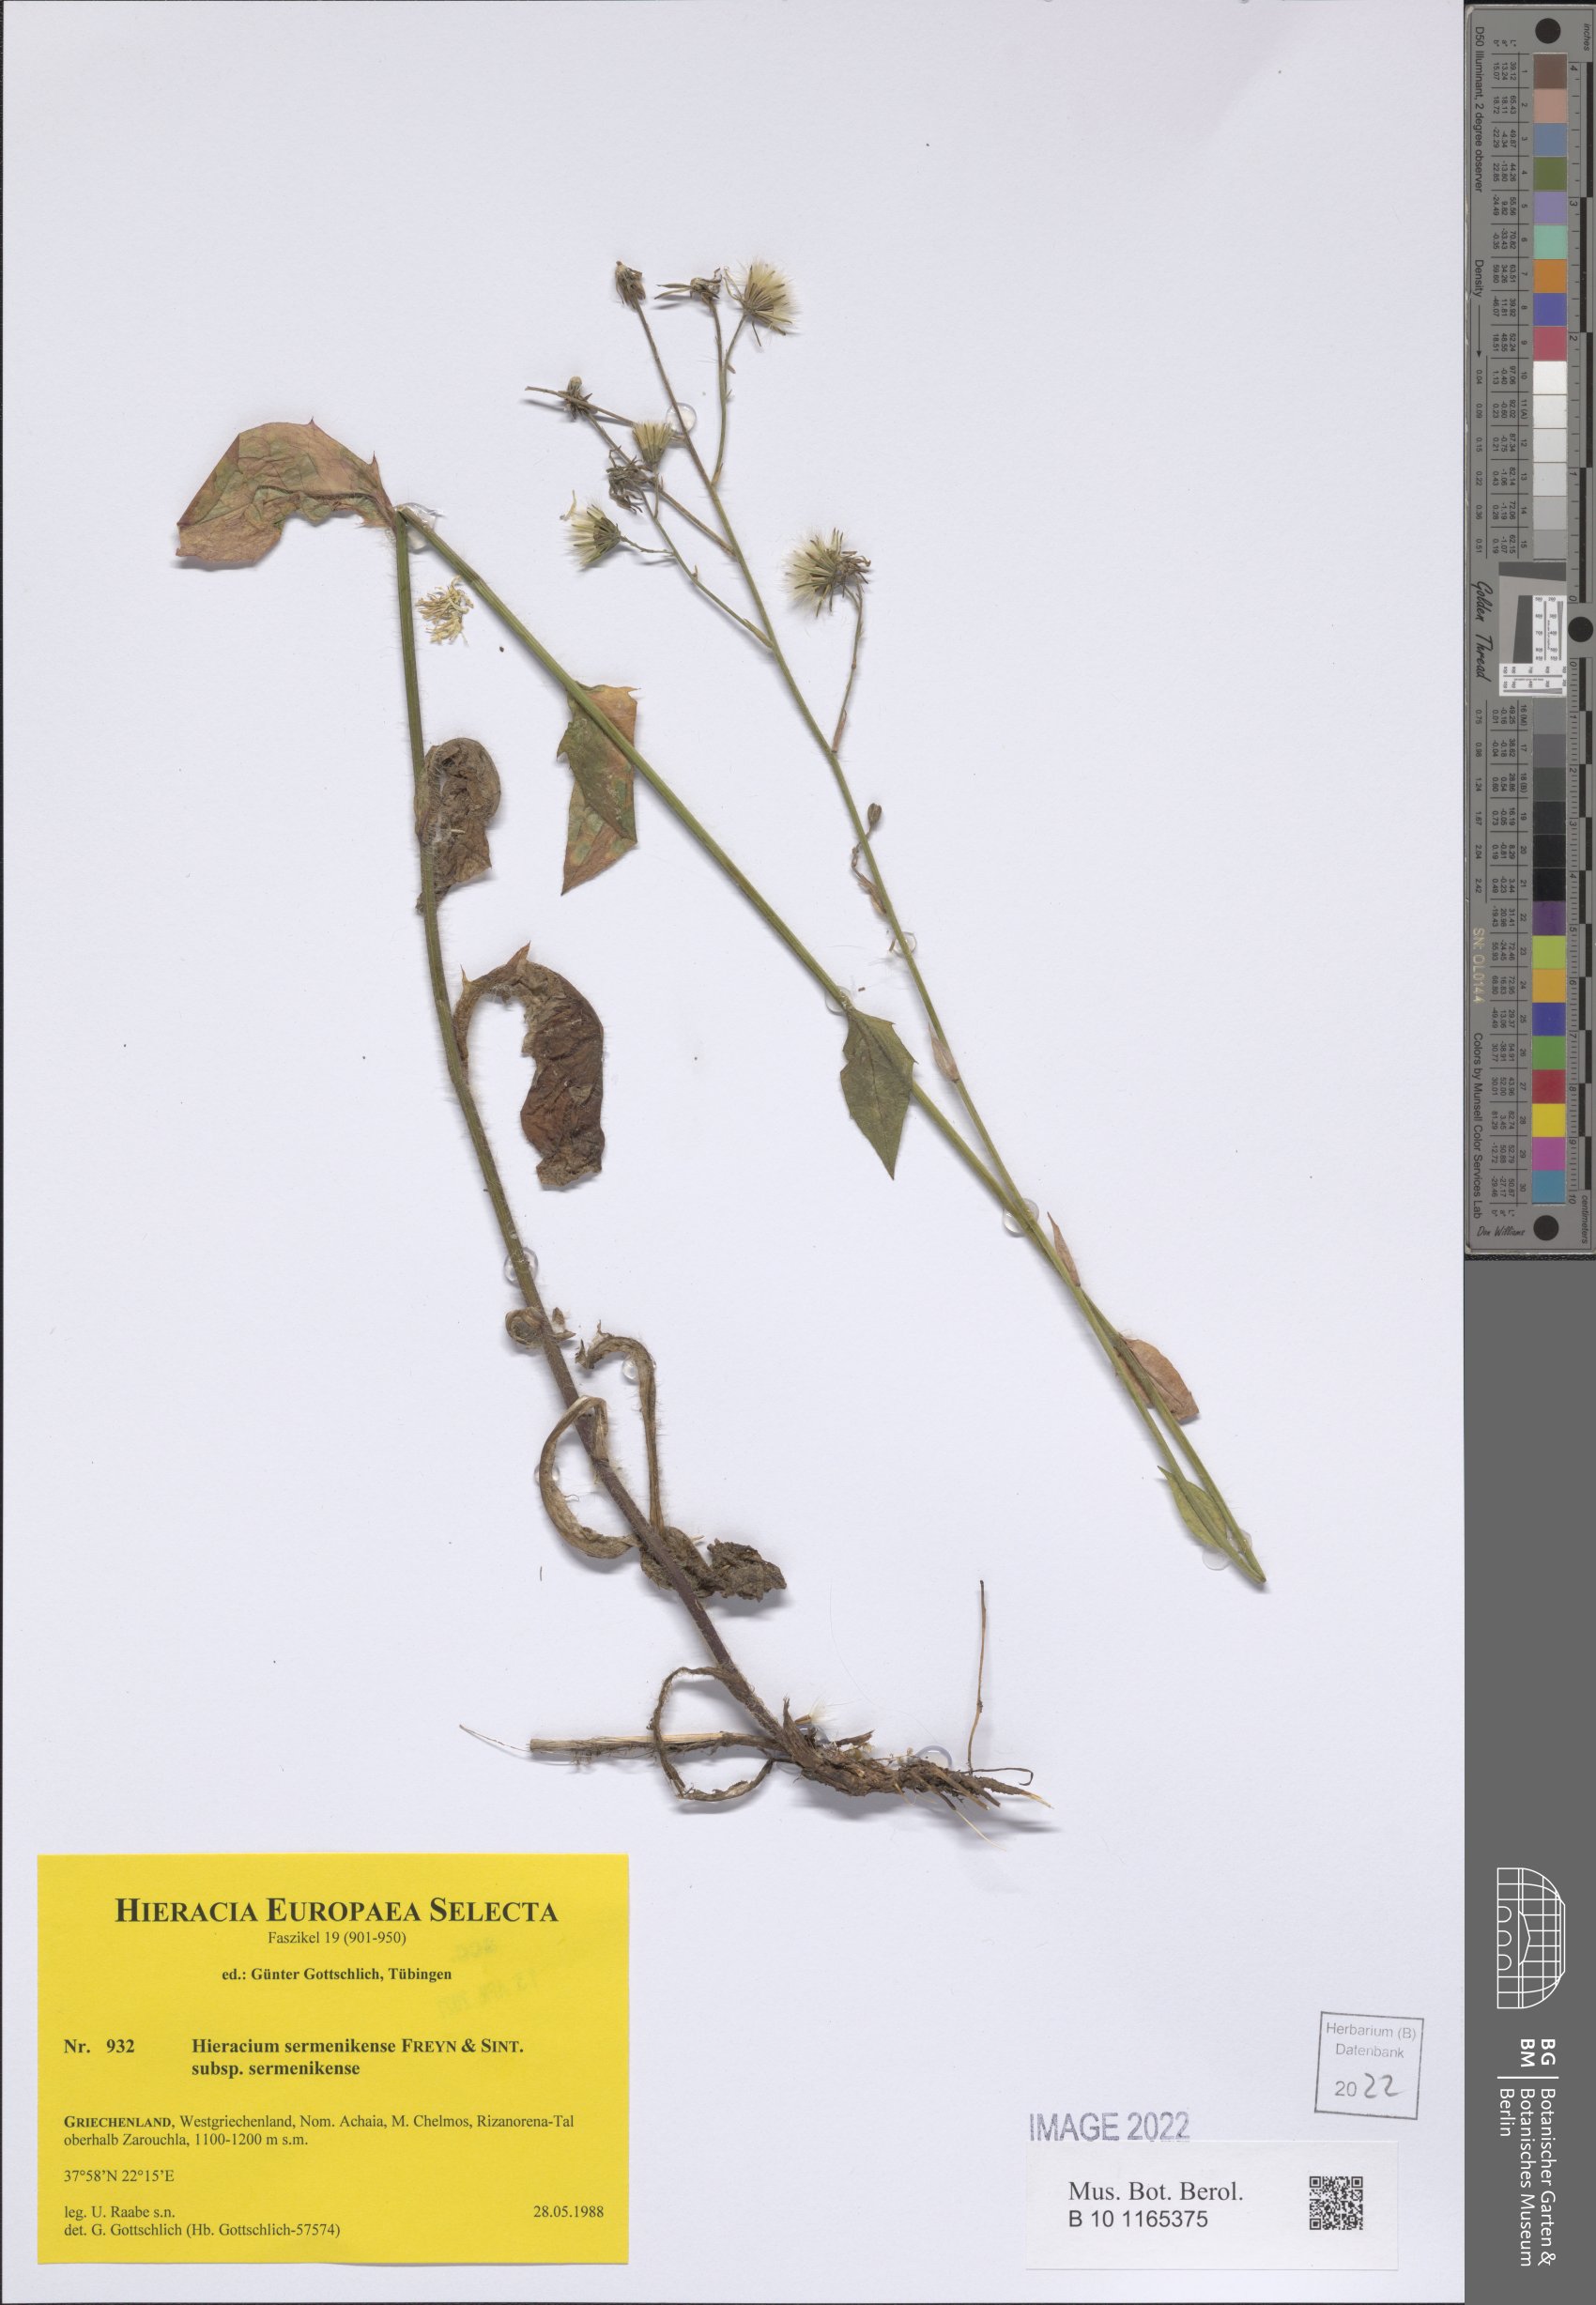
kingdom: Plantae
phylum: Tracheophyta
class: Magnoliopsida
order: Asterales
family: Asteraceae
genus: Hieracium
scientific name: Hieracium sermenikense
